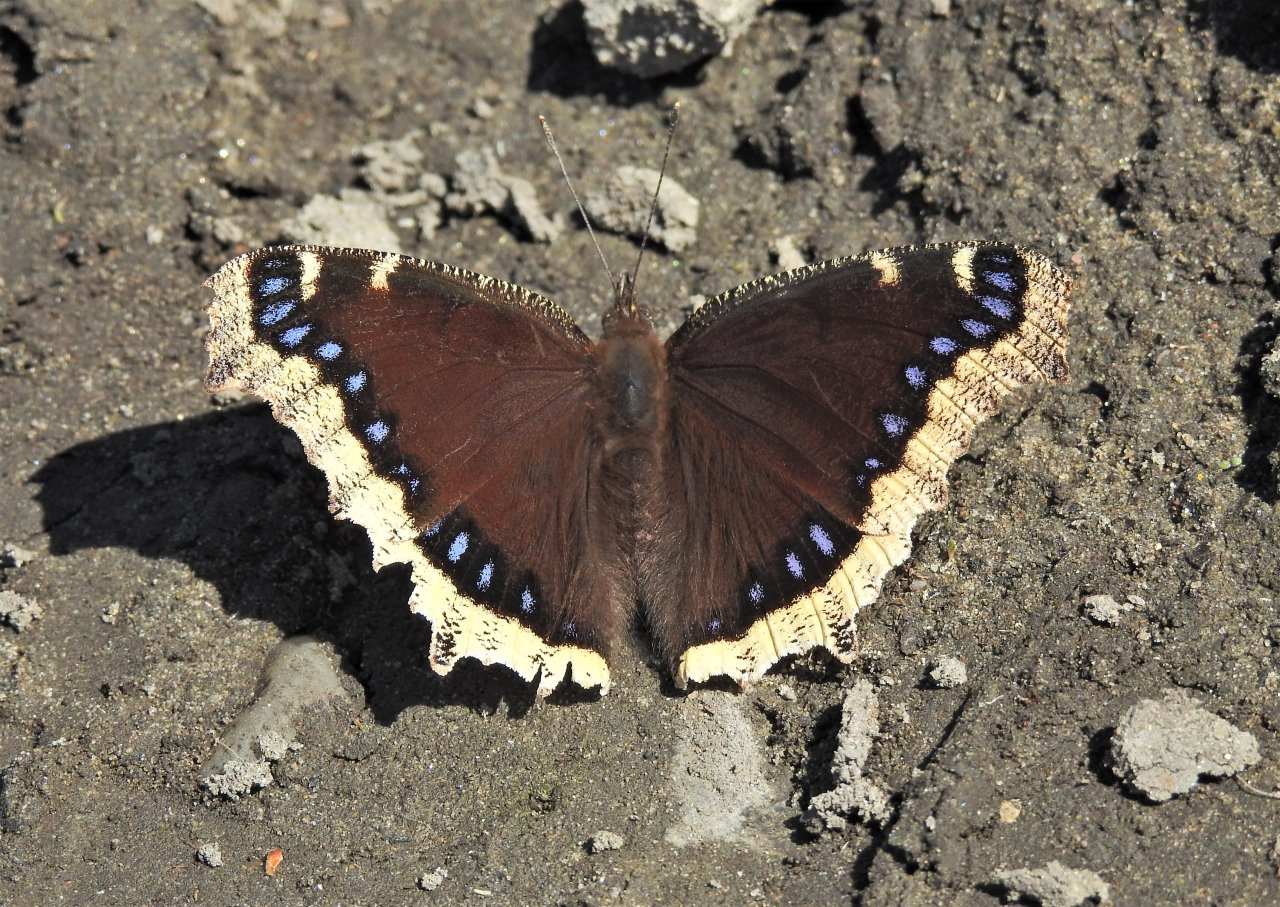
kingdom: Animalia
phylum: Arthropoda
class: Insecta
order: Lepidoptera
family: Nymphalidae
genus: Nymphalis
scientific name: Nymphalis antiopa
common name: Mourning Cloak
